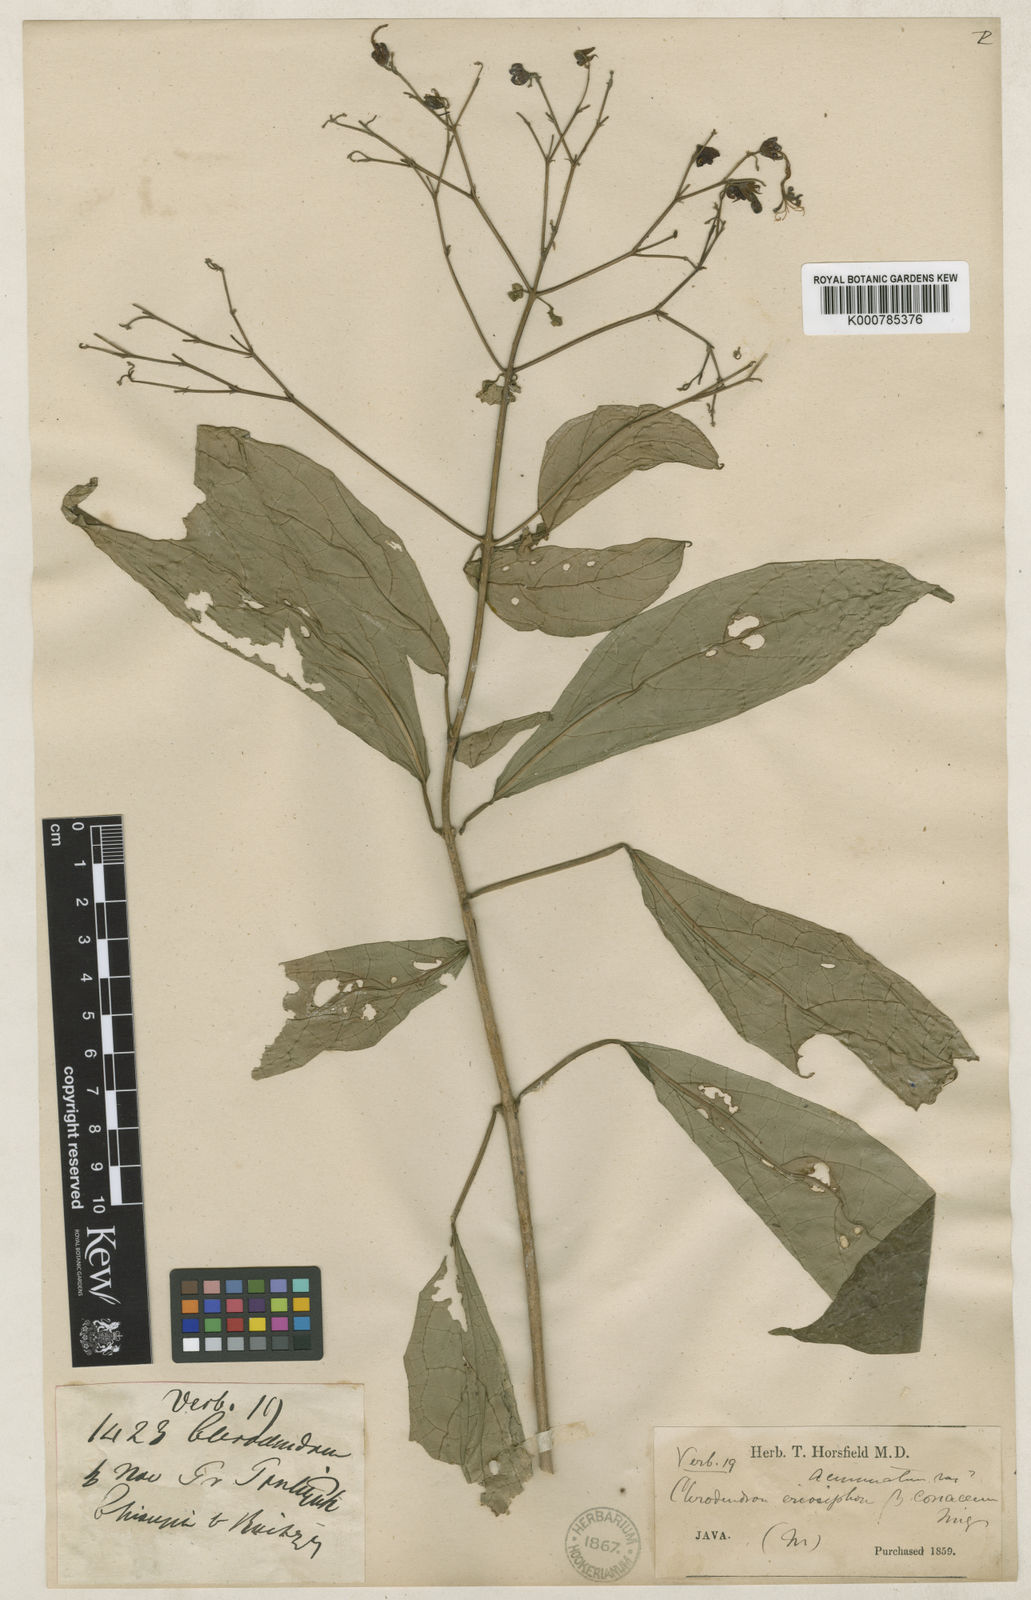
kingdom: Plantae
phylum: Tracheophyta
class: Magnoliopsida
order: Lamiales
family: Lamiaceae
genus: Clerodendrum
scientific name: Clerodendrum disparifolium
